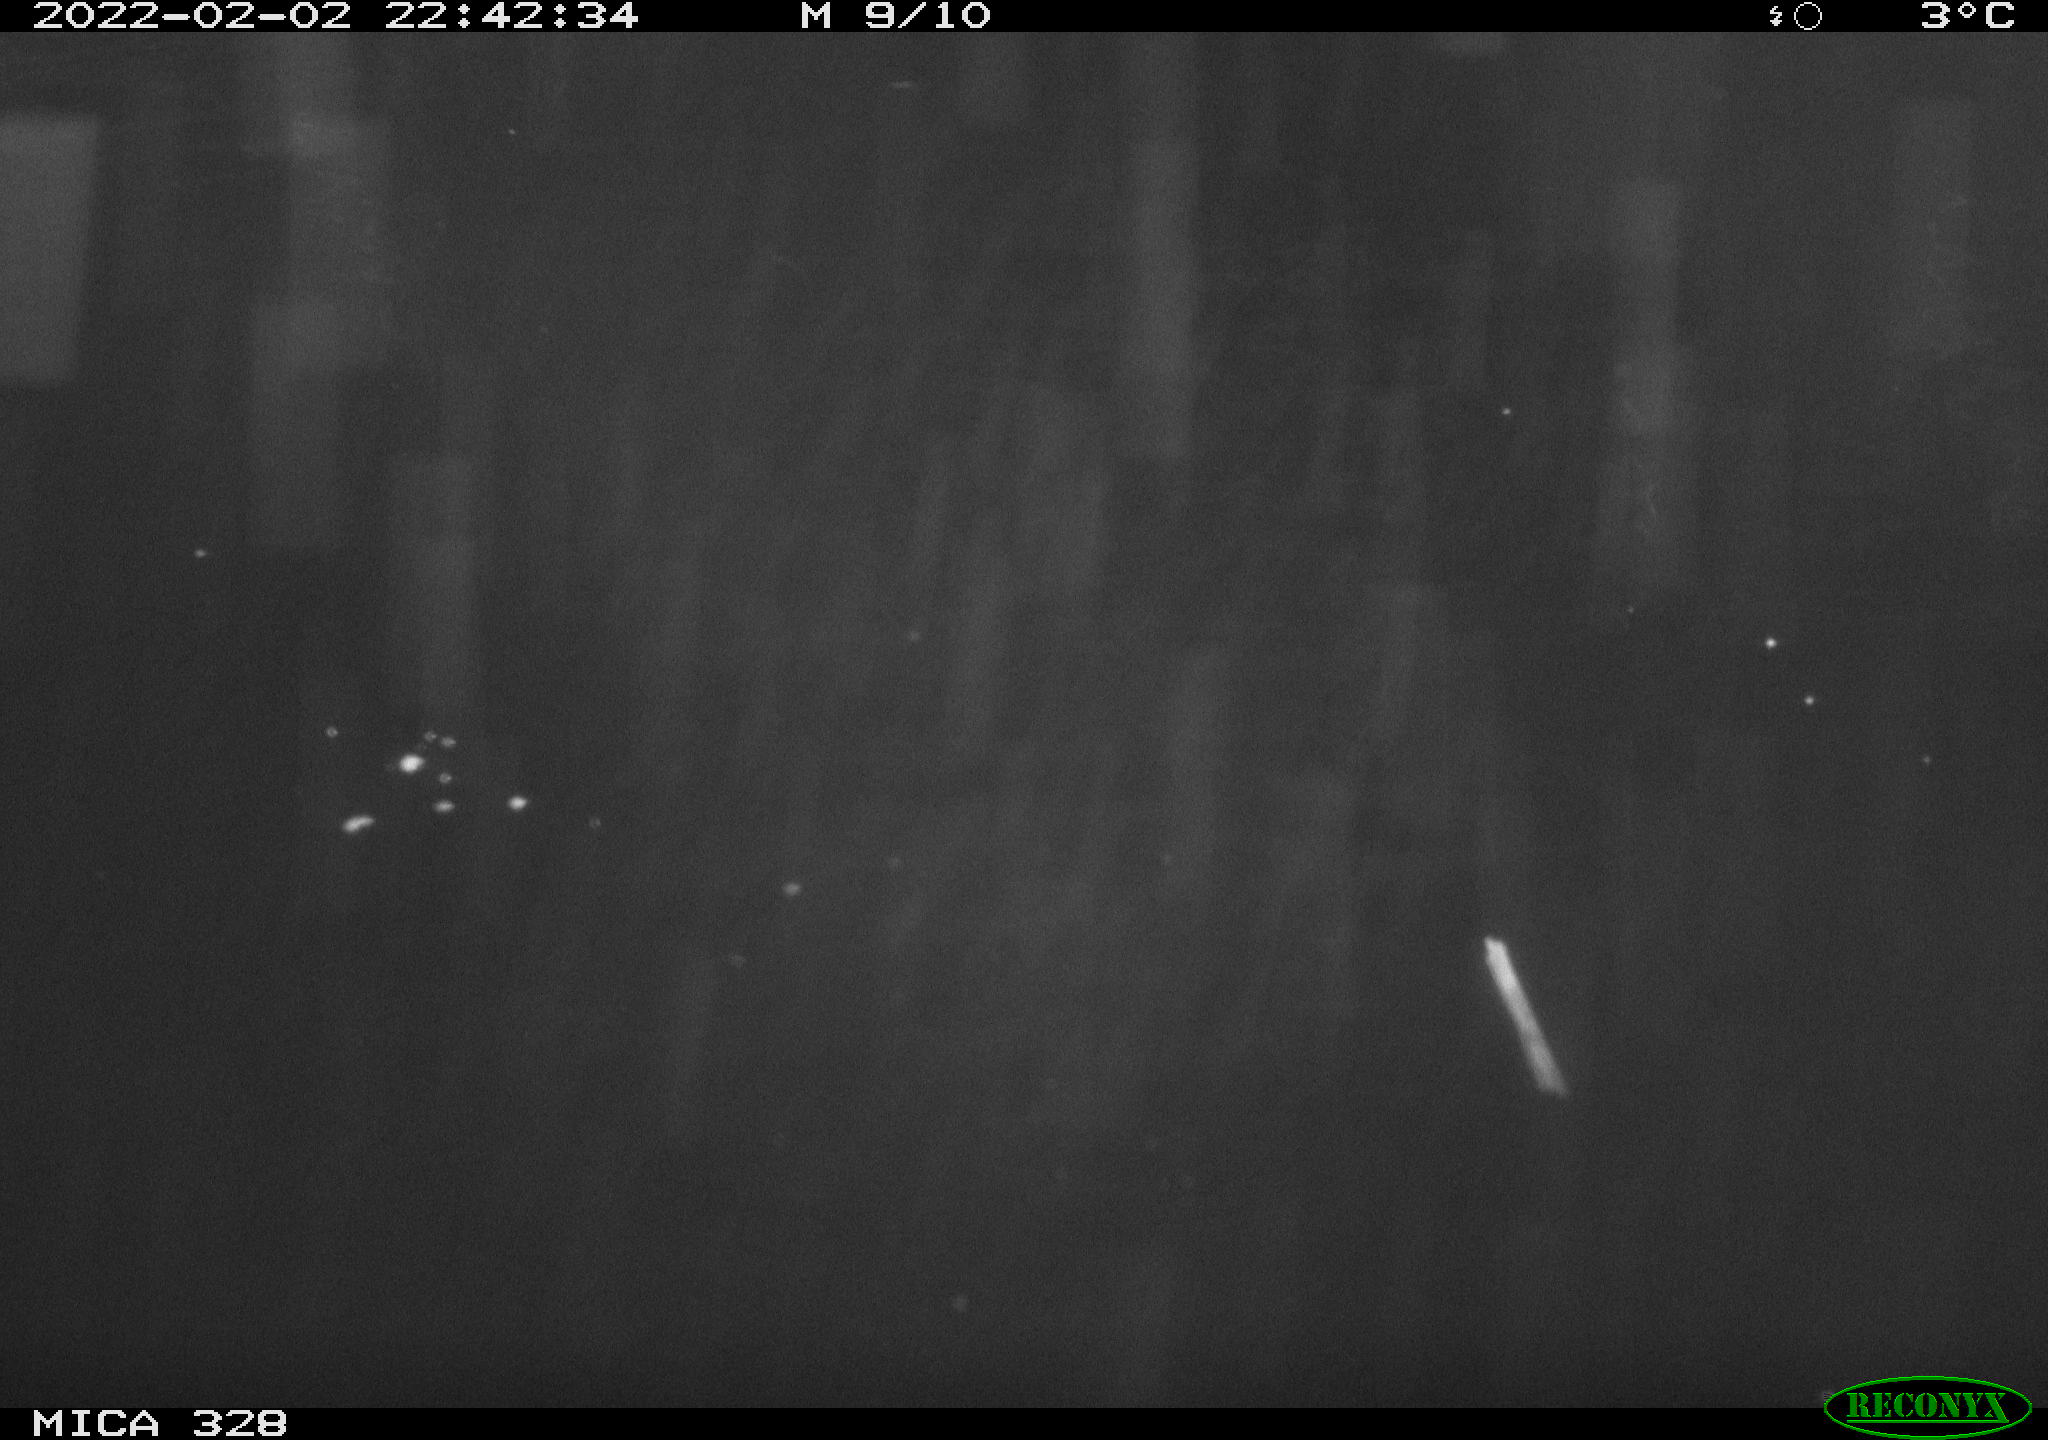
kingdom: Animalia
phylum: Chordata
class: Mammalia
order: Rodentia
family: Cricetidae
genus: Ondatra
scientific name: Ondatra zibethicus
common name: Muskrat
